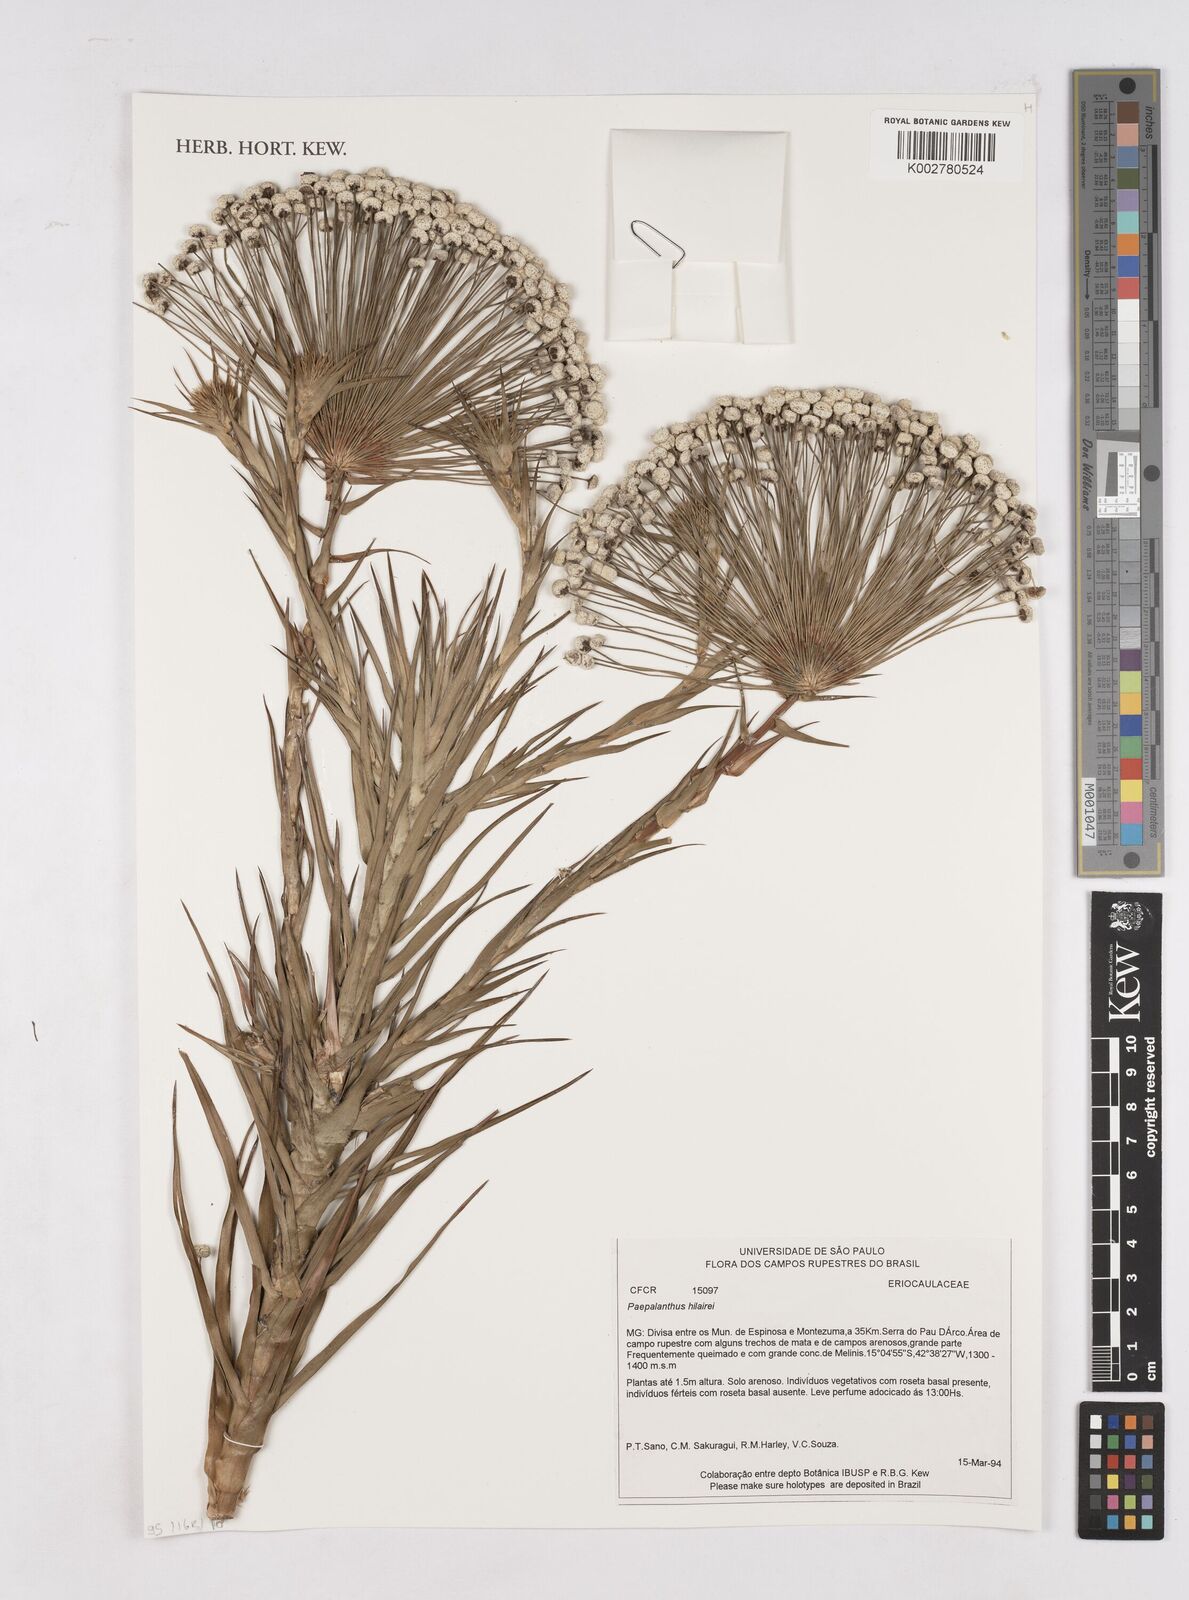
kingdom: Plantae
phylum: Tracheophyta
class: Liliopsida
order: Poales
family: Eriocaulaceae
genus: Paepalanthus
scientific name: Paepalanthus hilairei
